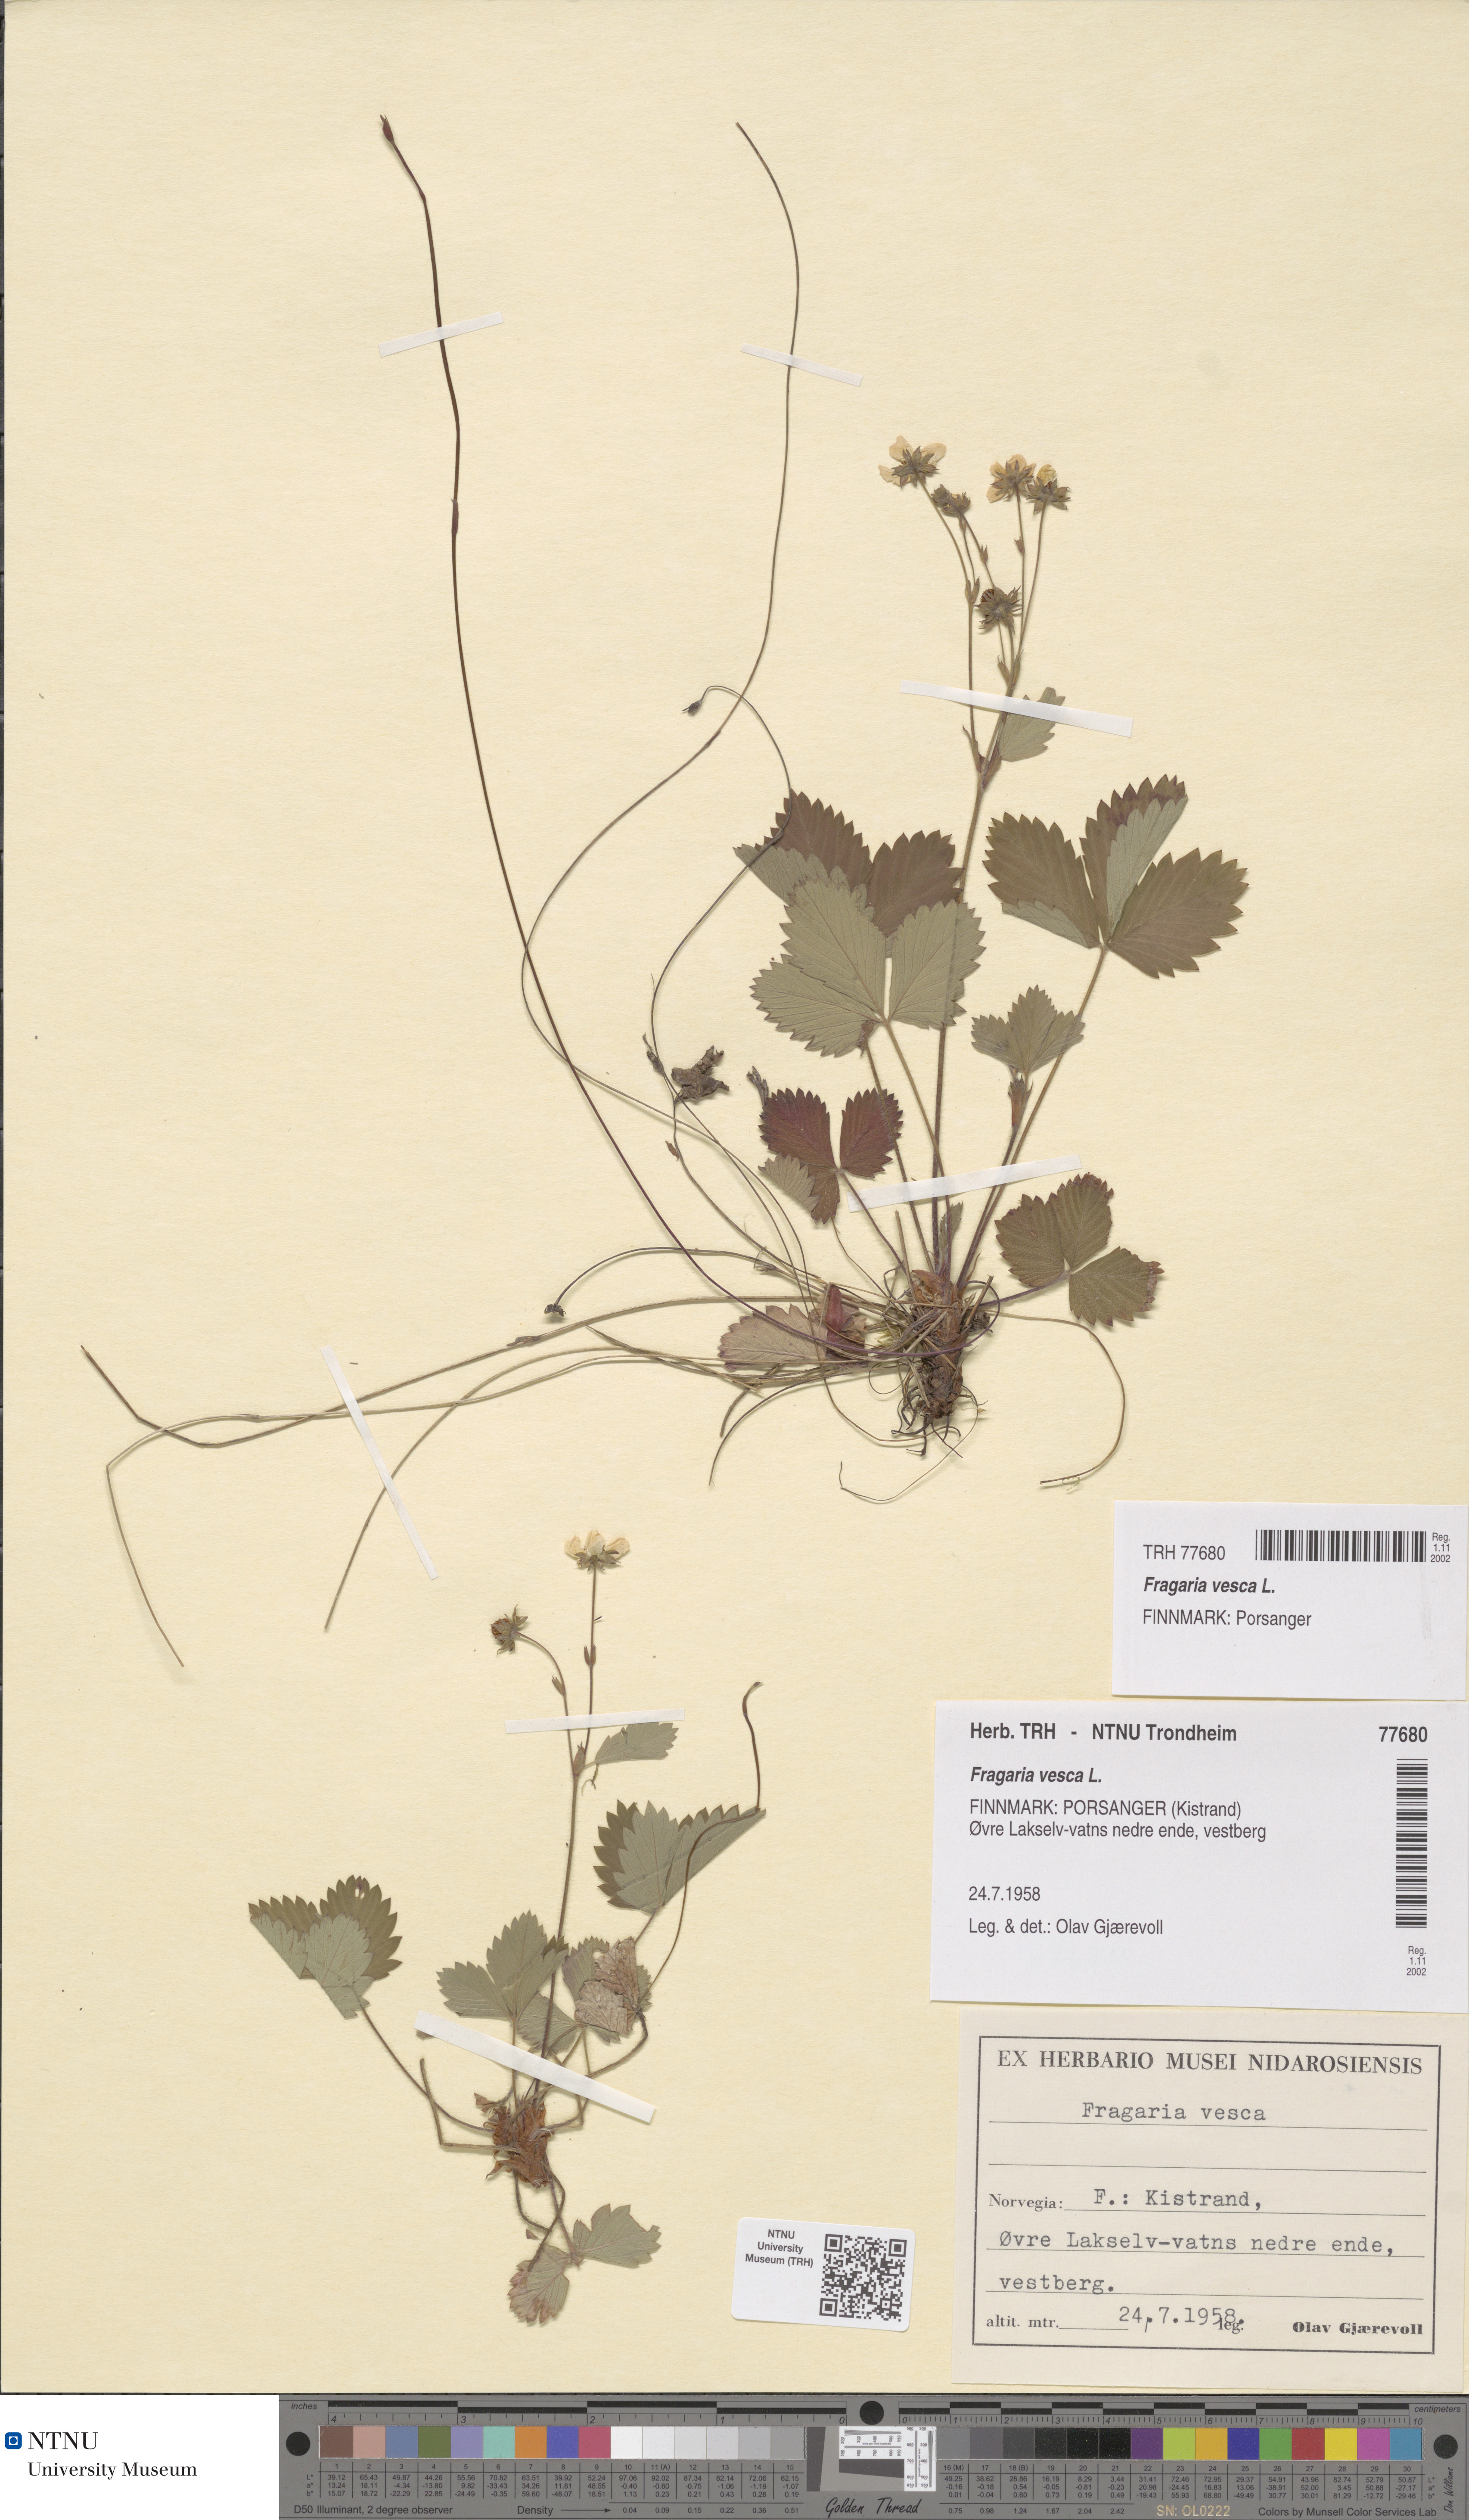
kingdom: Plantae
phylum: Tracheophyta
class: Magnoliopsida
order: Rosales
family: Rosaceae
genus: Fragaria
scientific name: Fragaria vesca
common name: Wild strawberry
